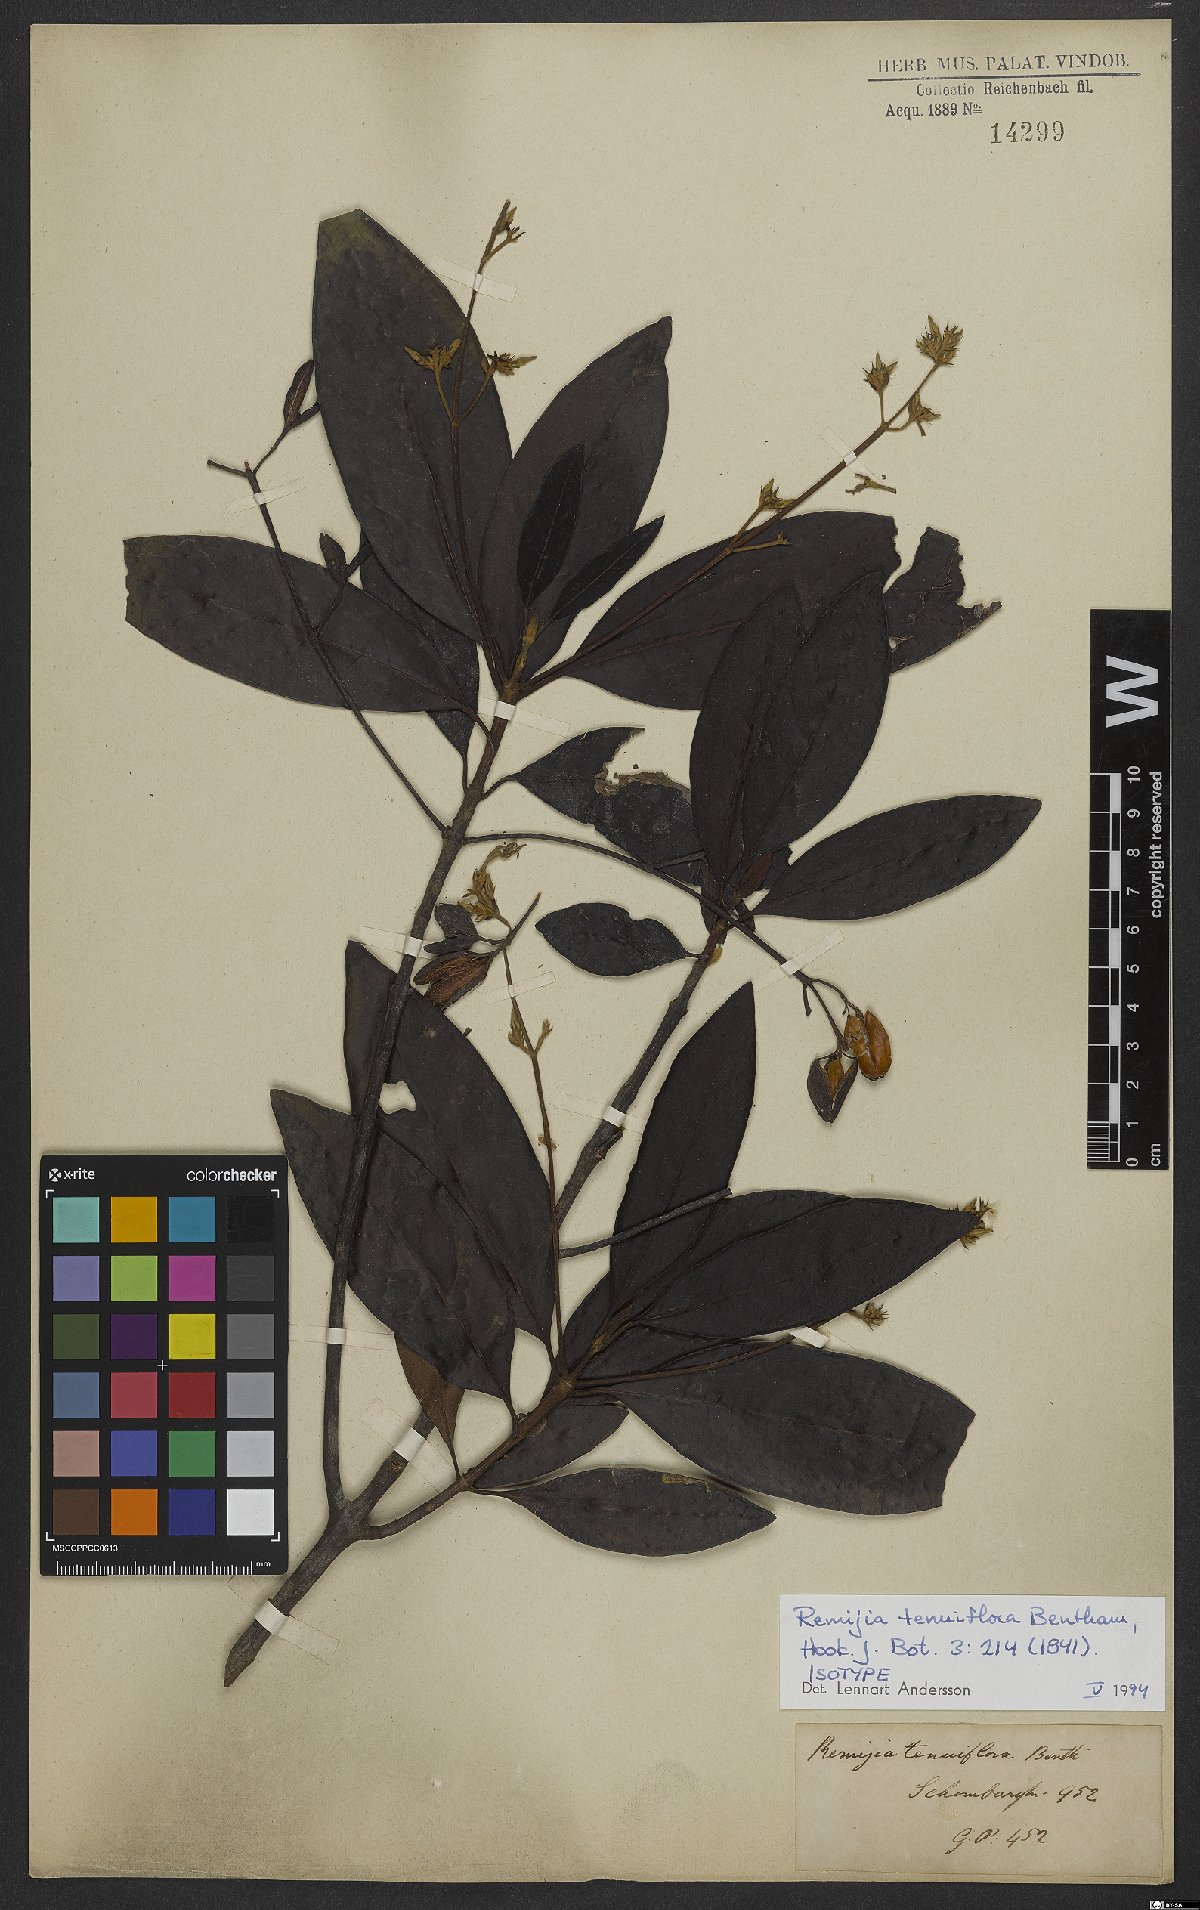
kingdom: Plantae
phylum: Tracheophyta
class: Magnoliopsida
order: Gentianales
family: Rubiaceae
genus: Remijia
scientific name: Remijia tenuiflora
